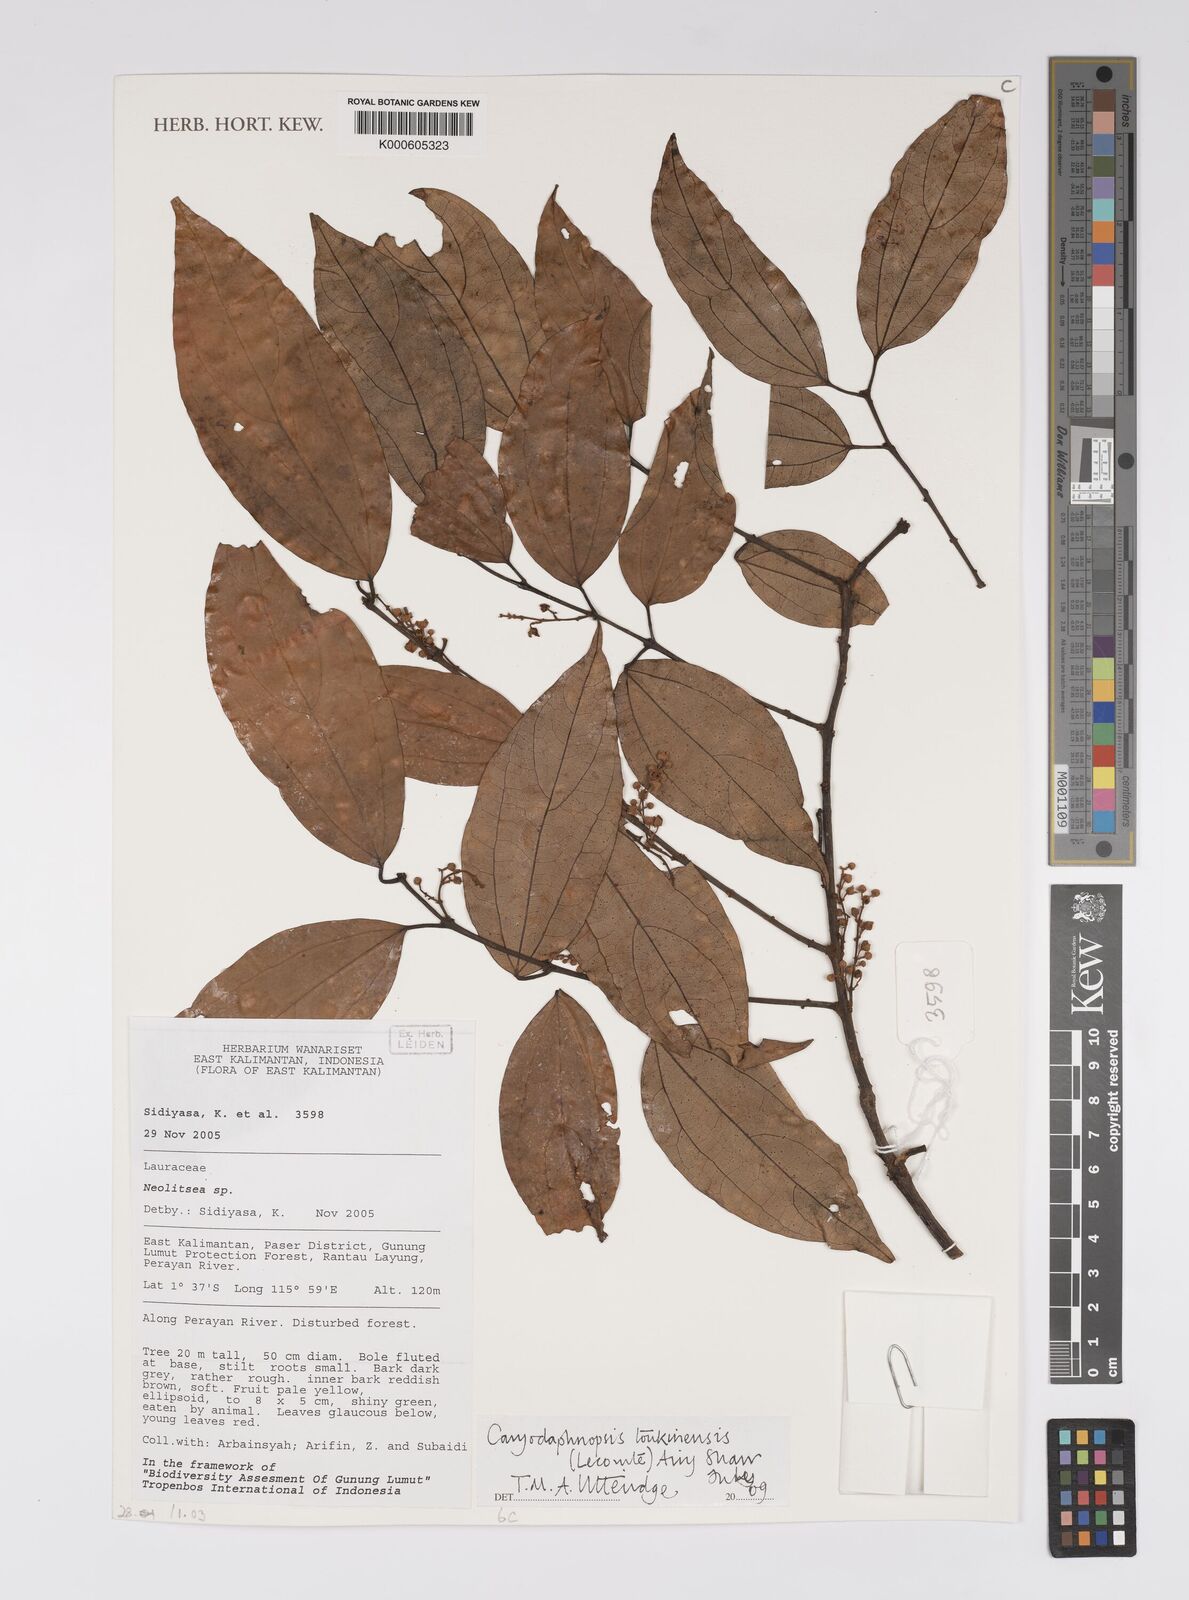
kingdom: Plantae
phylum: Tracheophyta
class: Magnoliopsida
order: Laurales
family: Lauraceae
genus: Caryodaphnopsis
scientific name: Caryodaphnopsis tonkinensis
